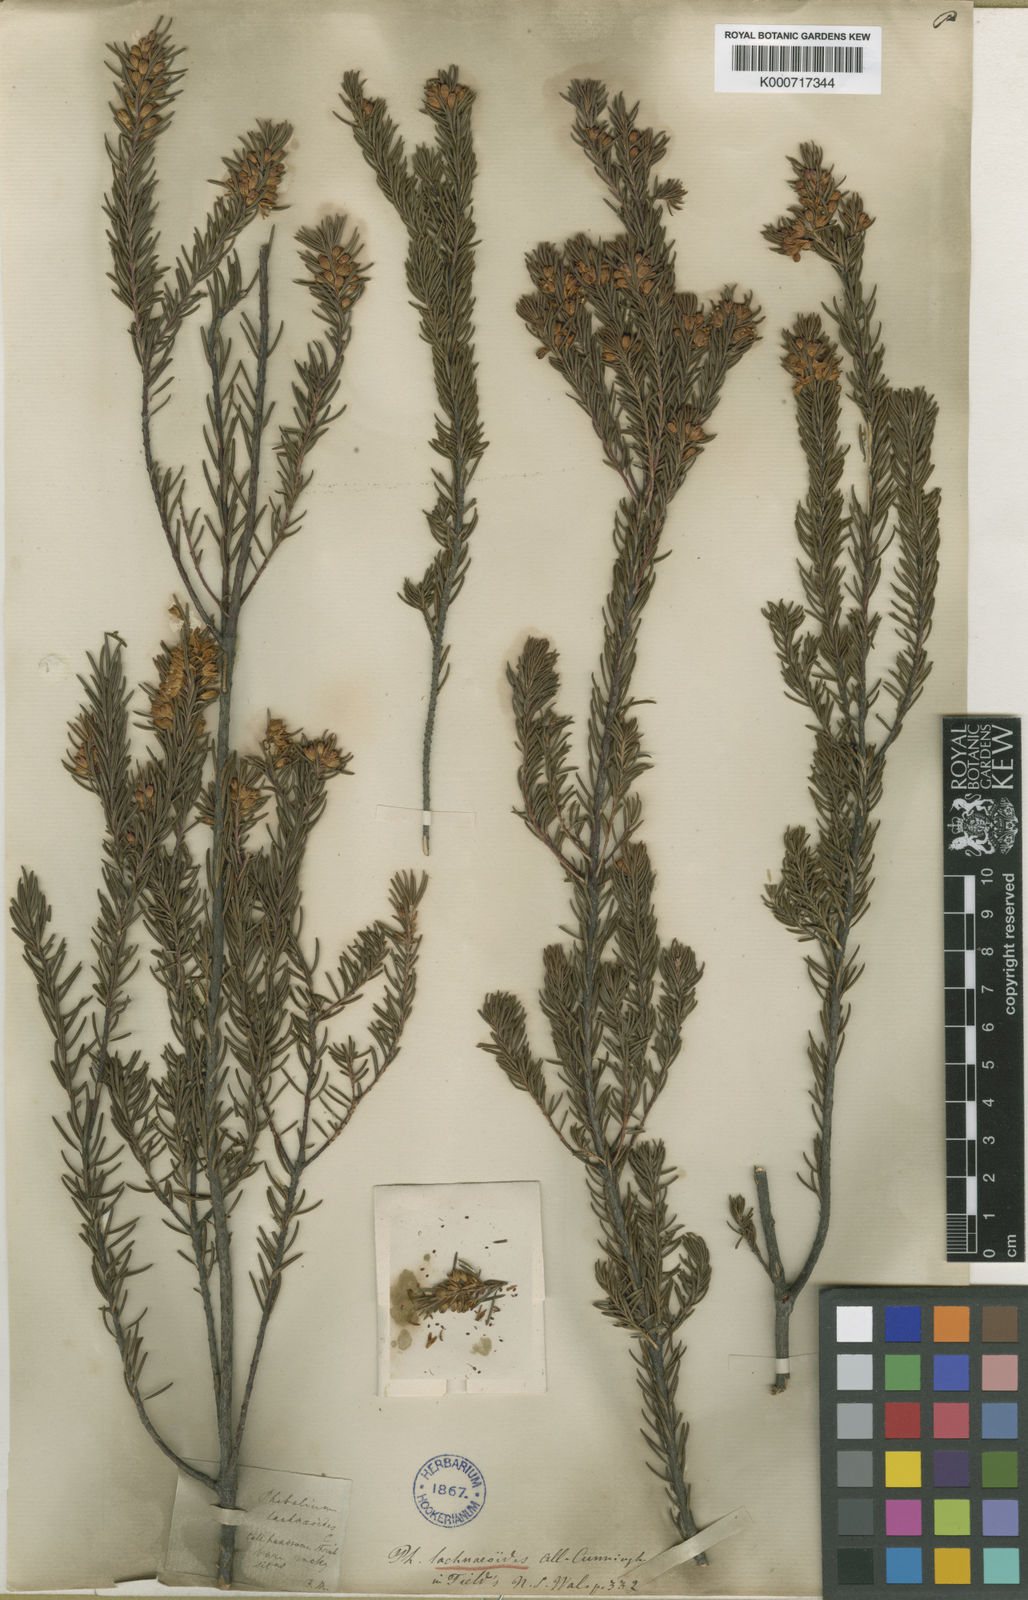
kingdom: Plantae
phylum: Tracheophyta
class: Magnoliopsida
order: Sapindales
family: Rutaceae
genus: Leionema
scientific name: Leionema lachnaeoides
